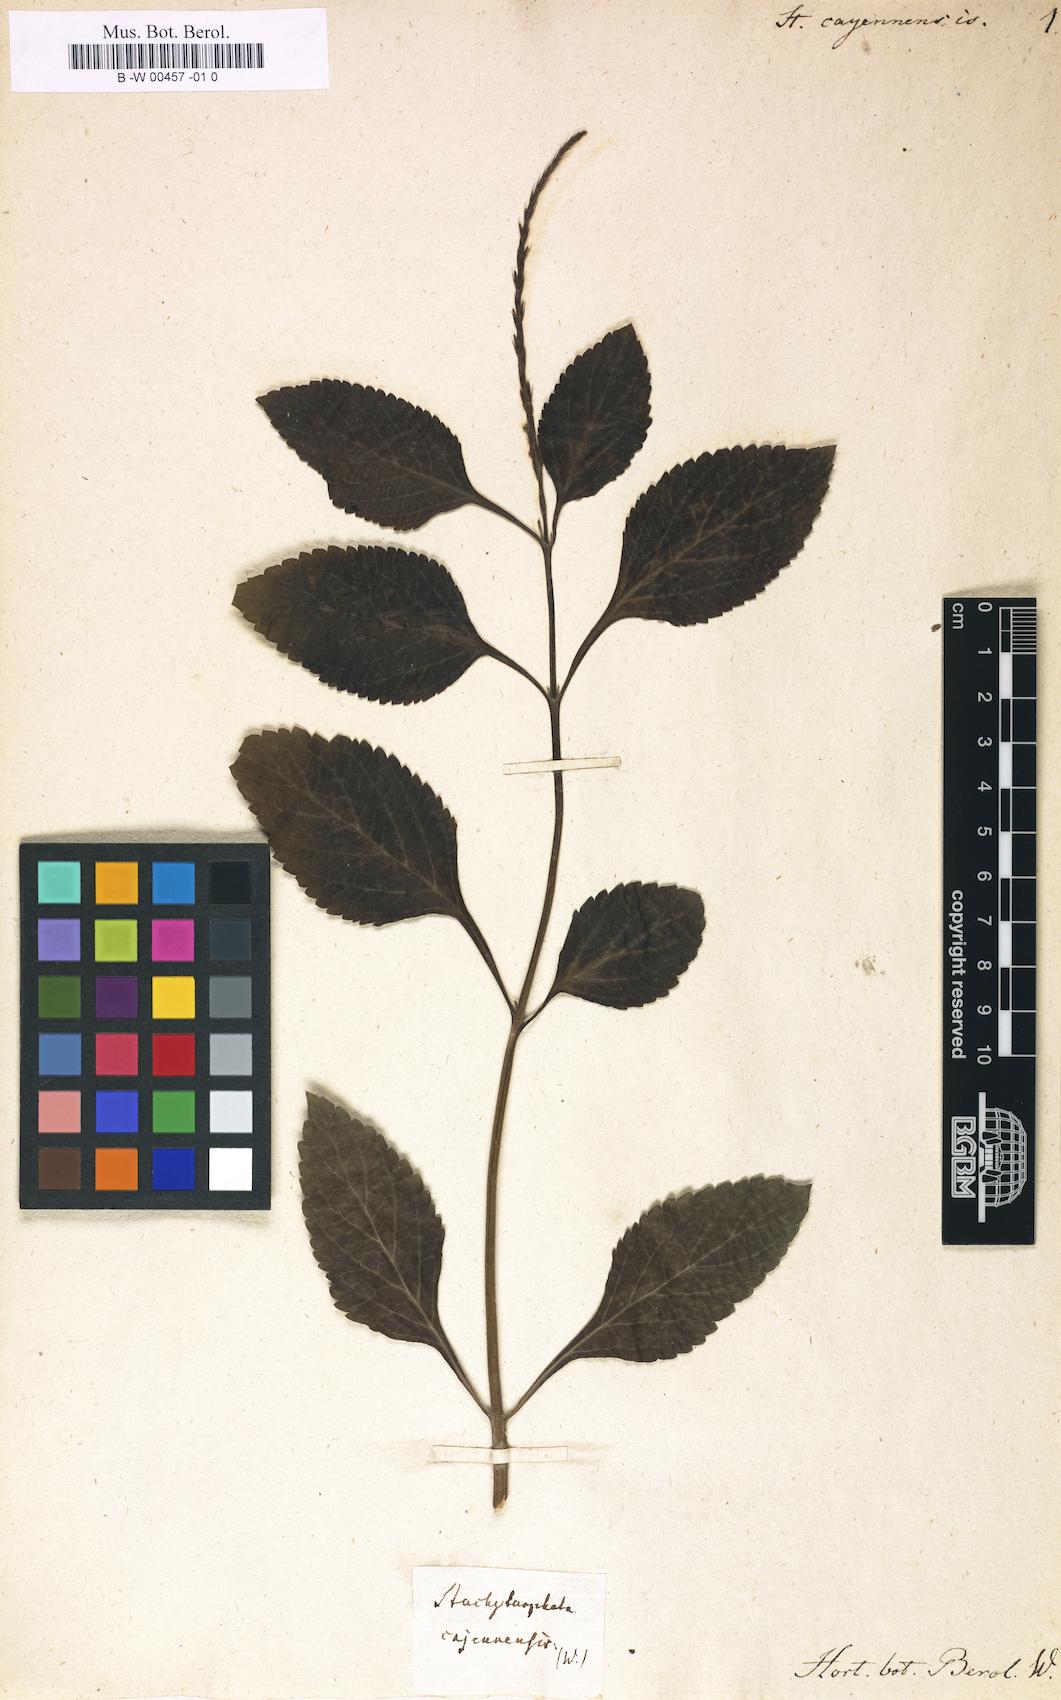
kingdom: Plantae
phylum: Tracheophyta
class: Magnoliopsida
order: Lamiales
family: Verbenaceae
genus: Stachytarpheta
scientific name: Stachytarpheta cayennensis
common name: Cayenne porterweed
